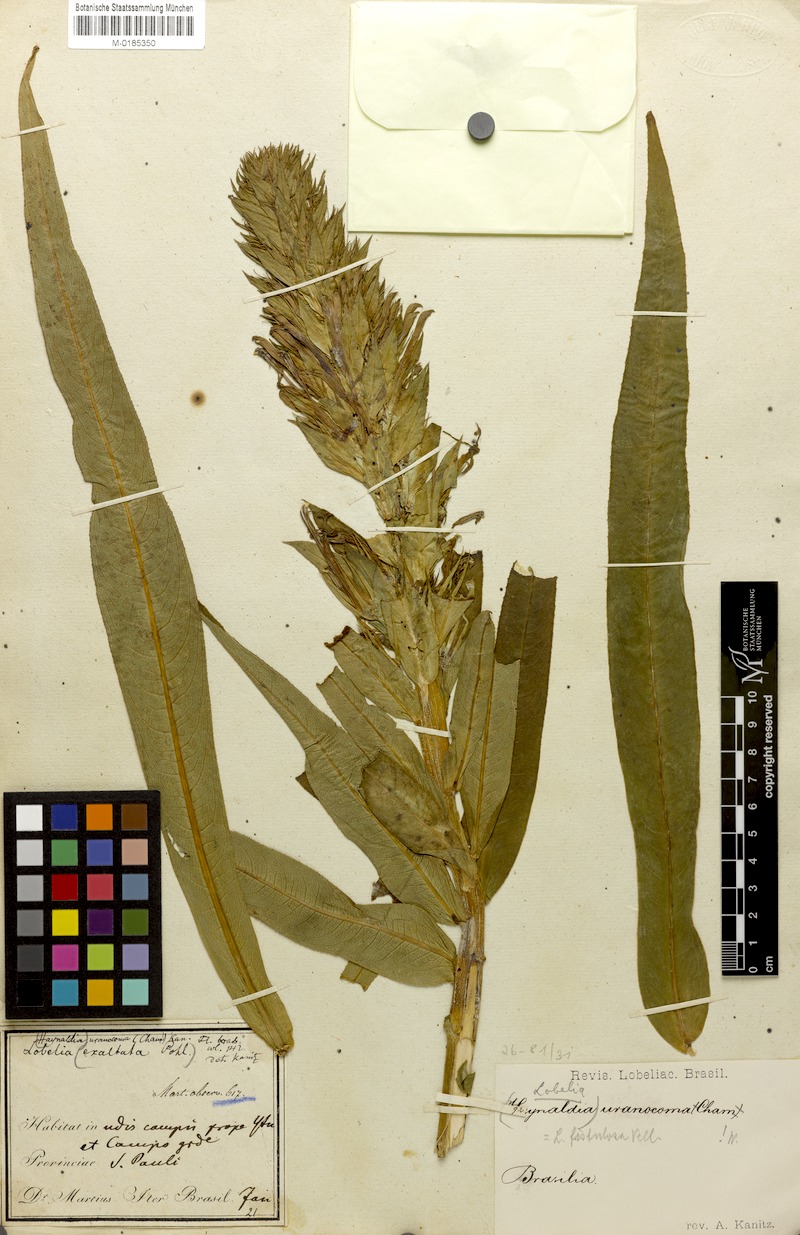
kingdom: Plantae
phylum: Tracheophyta
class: Magnoliopsida
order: Asterales
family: Campanulaceae
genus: Lobelia
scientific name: Lobelia fistulosa
